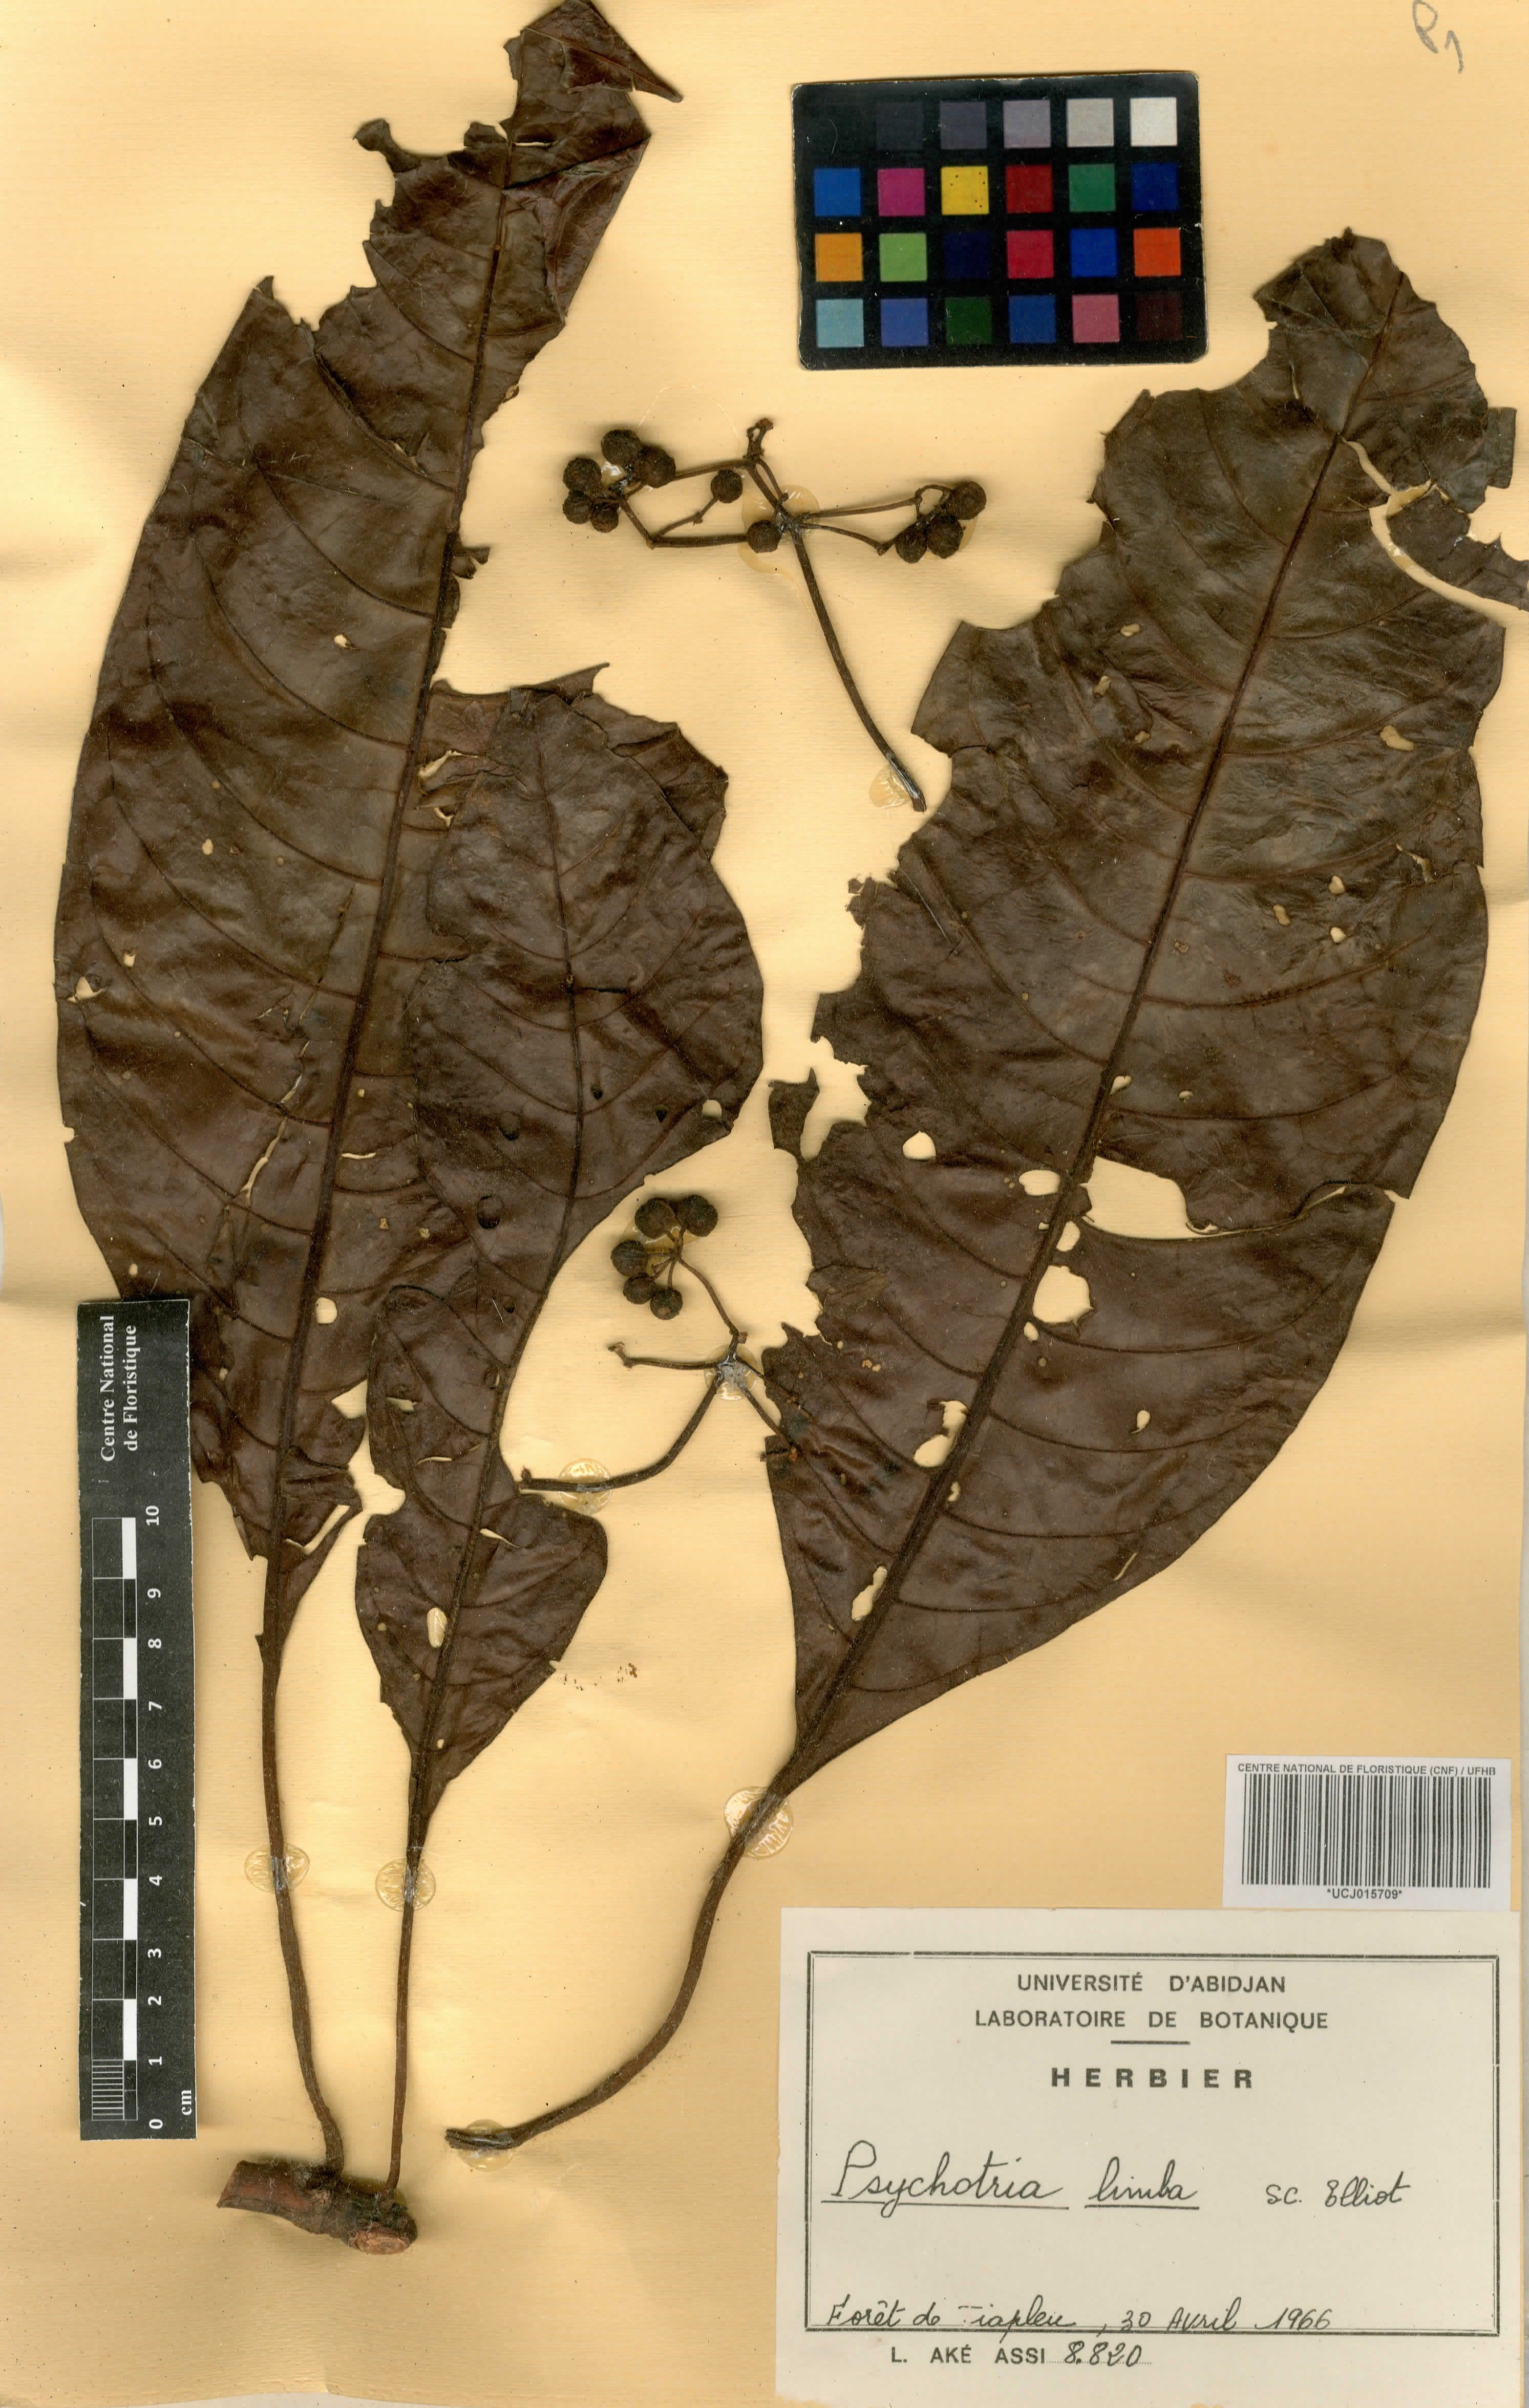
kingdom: Plantae
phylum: Tracheophyta
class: Magnoliopsida
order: Gentianales
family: Rubiaceae
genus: Psychotria
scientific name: Psychotria limba
